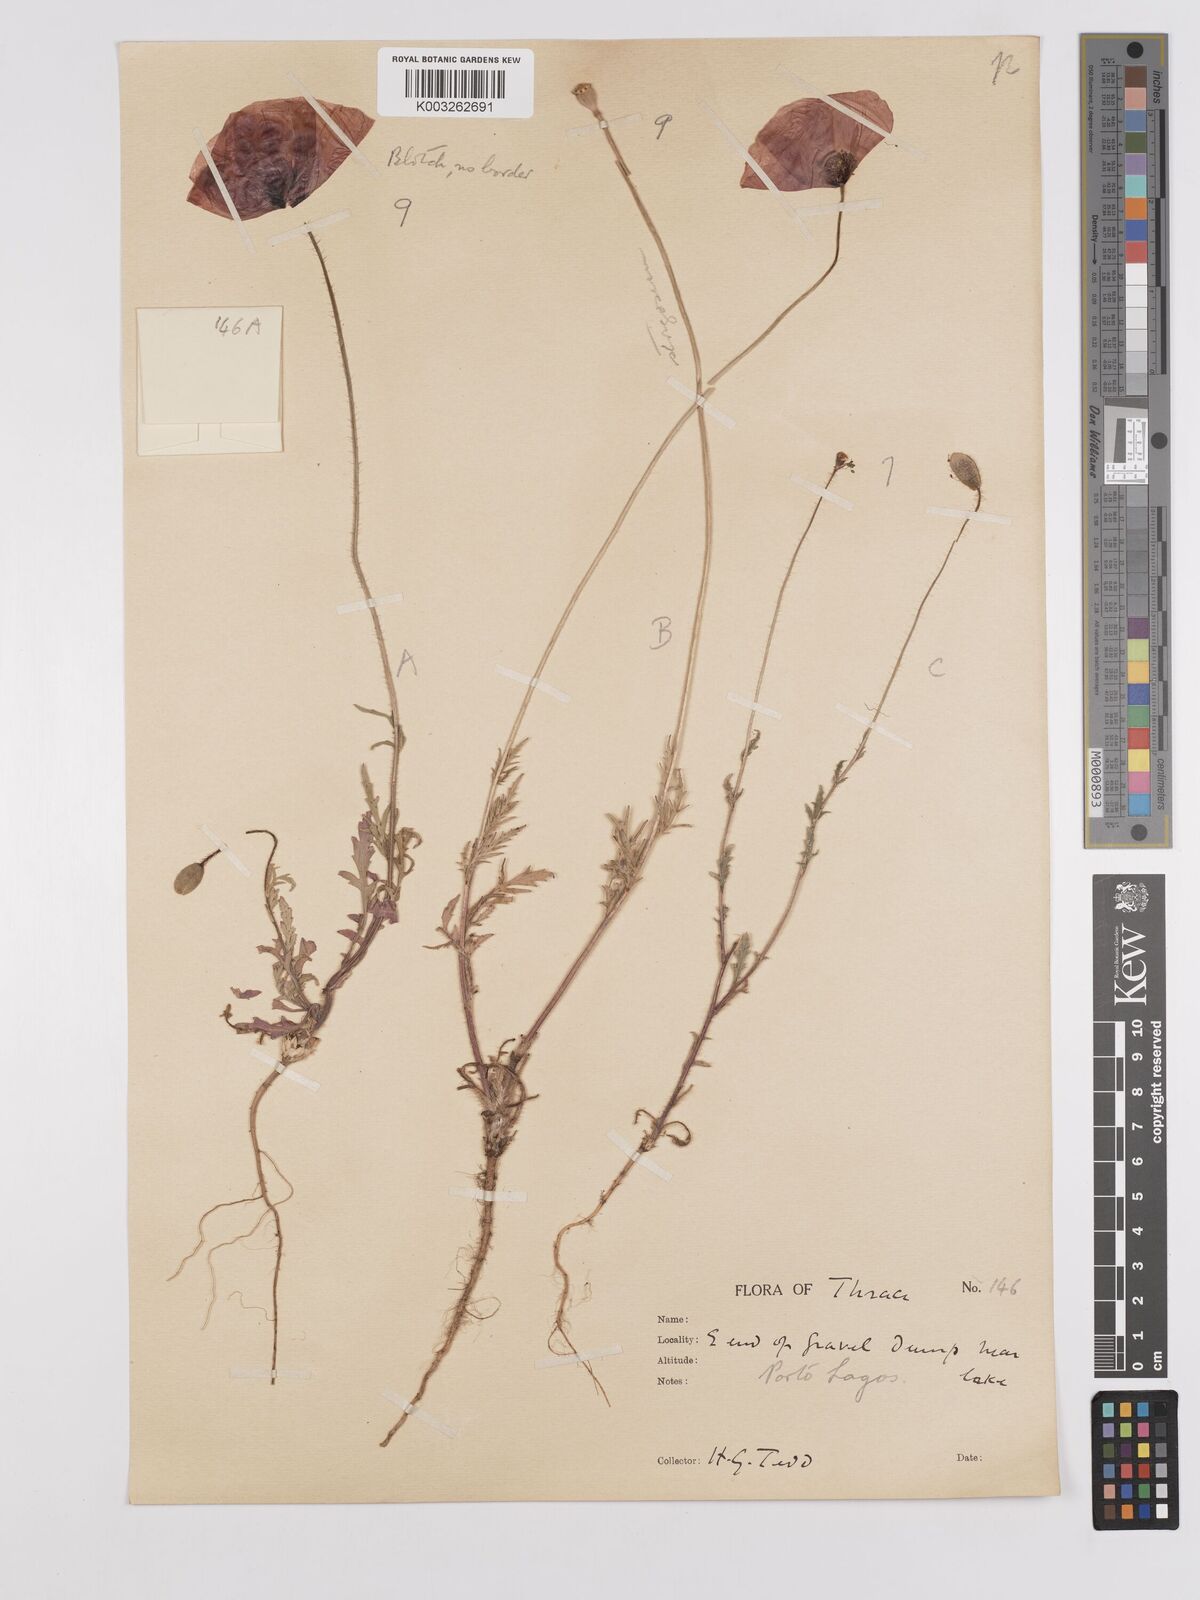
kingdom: Plantae
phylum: Tracheophyta
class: Magnoliopsida
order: Ranunculales
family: Papaveraceae
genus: Papaver
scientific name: Papaver
